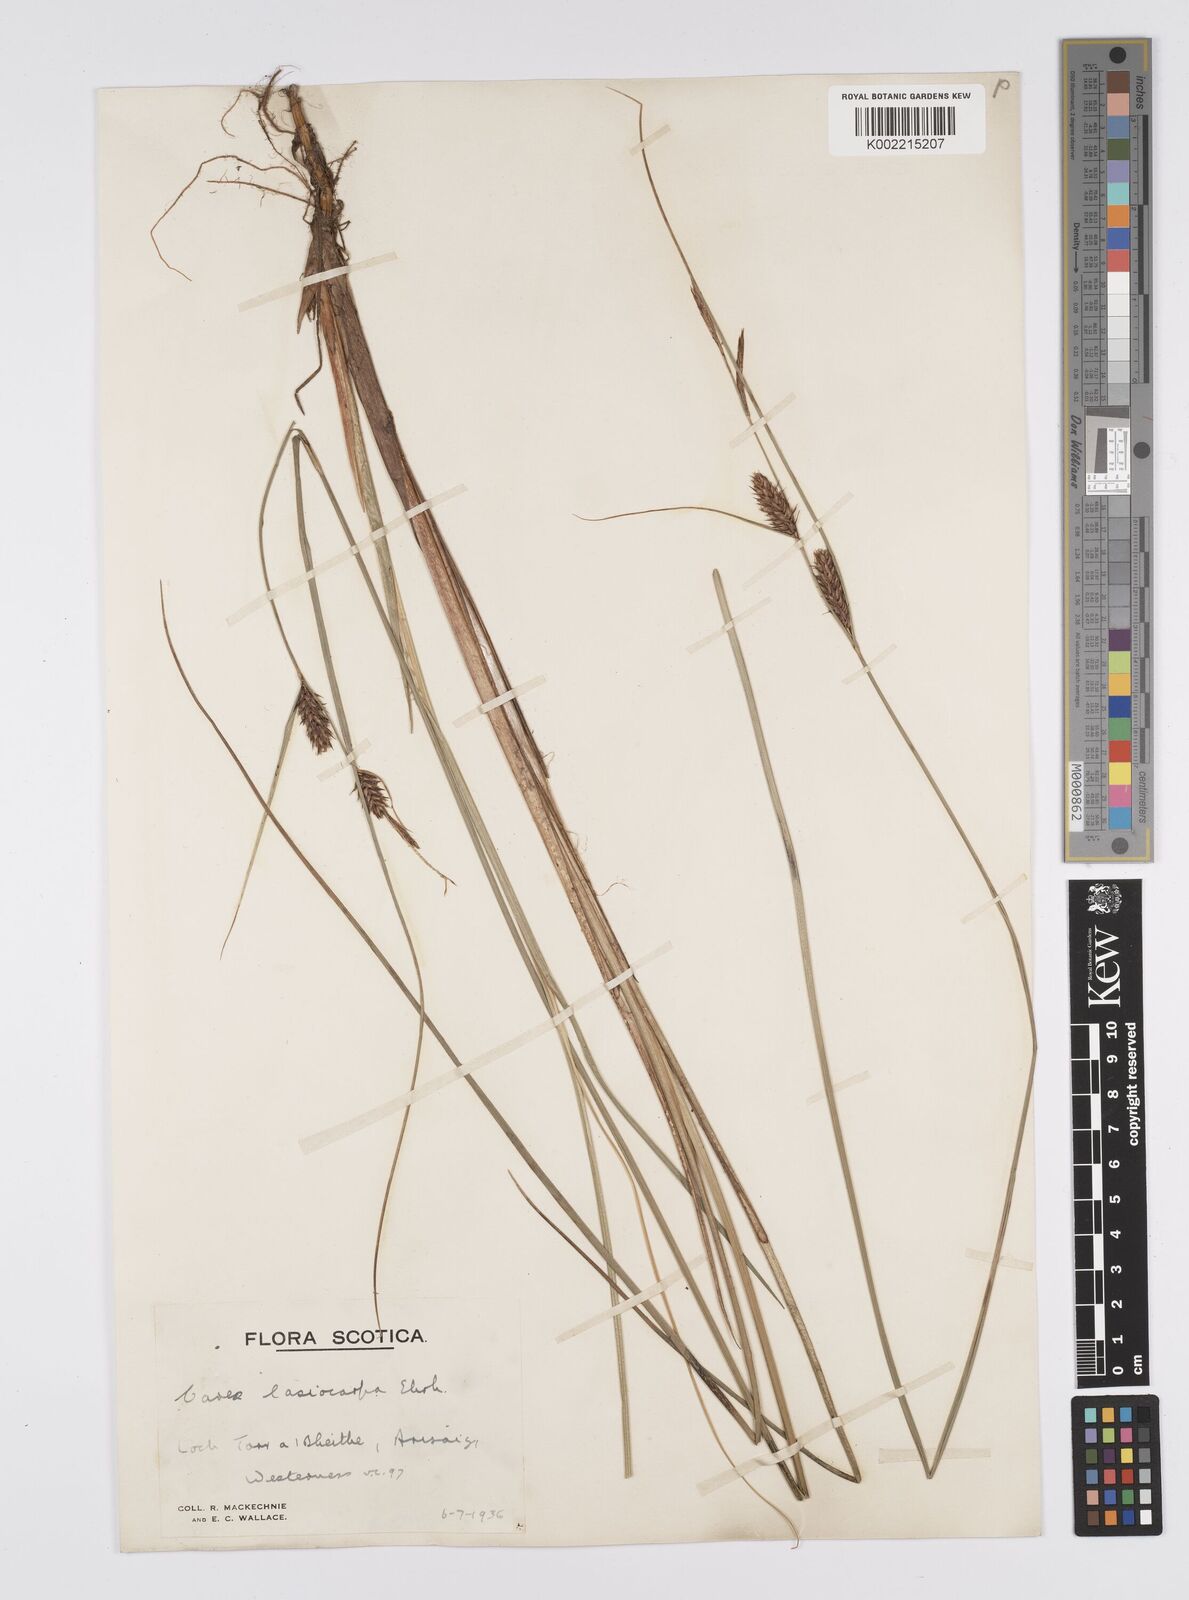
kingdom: Plantae
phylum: Tracheophyta
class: Liliopsida
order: Poales
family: Cyperaceae
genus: Carex
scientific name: Carex lasiocarpa
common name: Slender sedge
